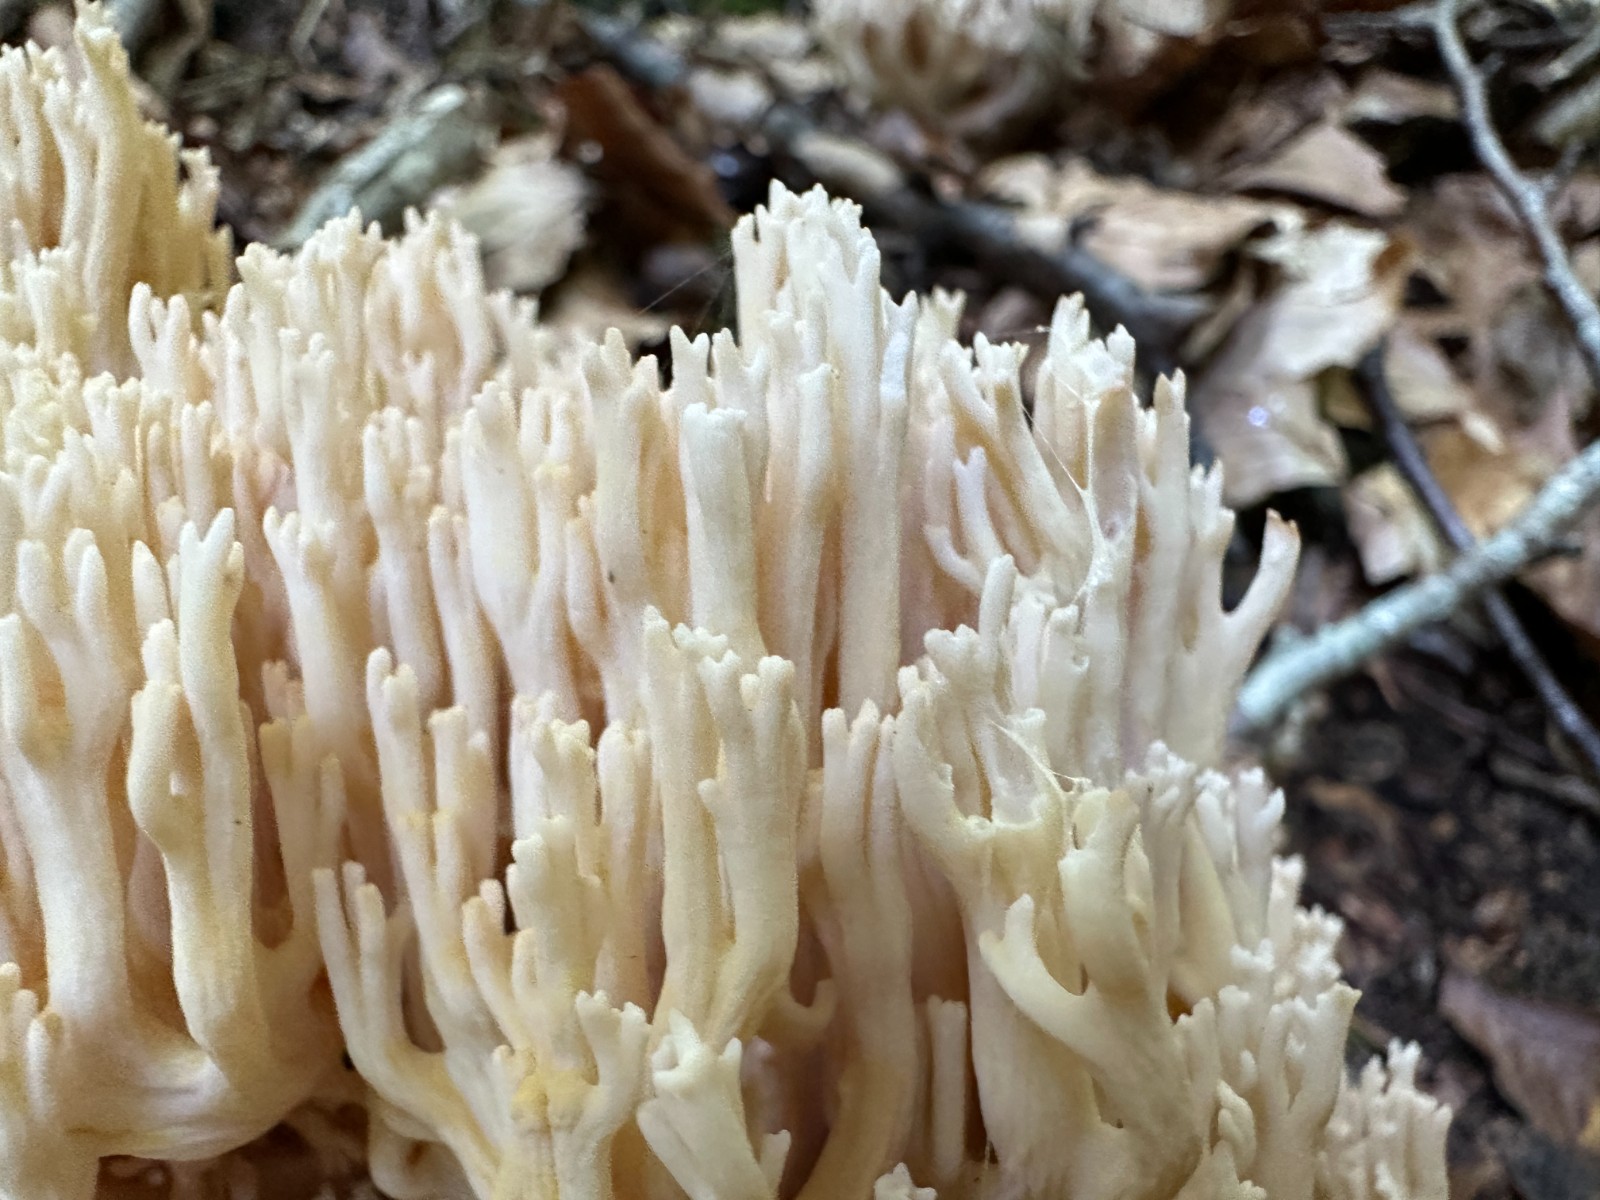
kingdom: Fungi
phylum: Basidiomycota
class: Agaricomycetes
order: Gomphales
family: Gomphaceae
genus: Ramaria
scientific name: Ramaria
